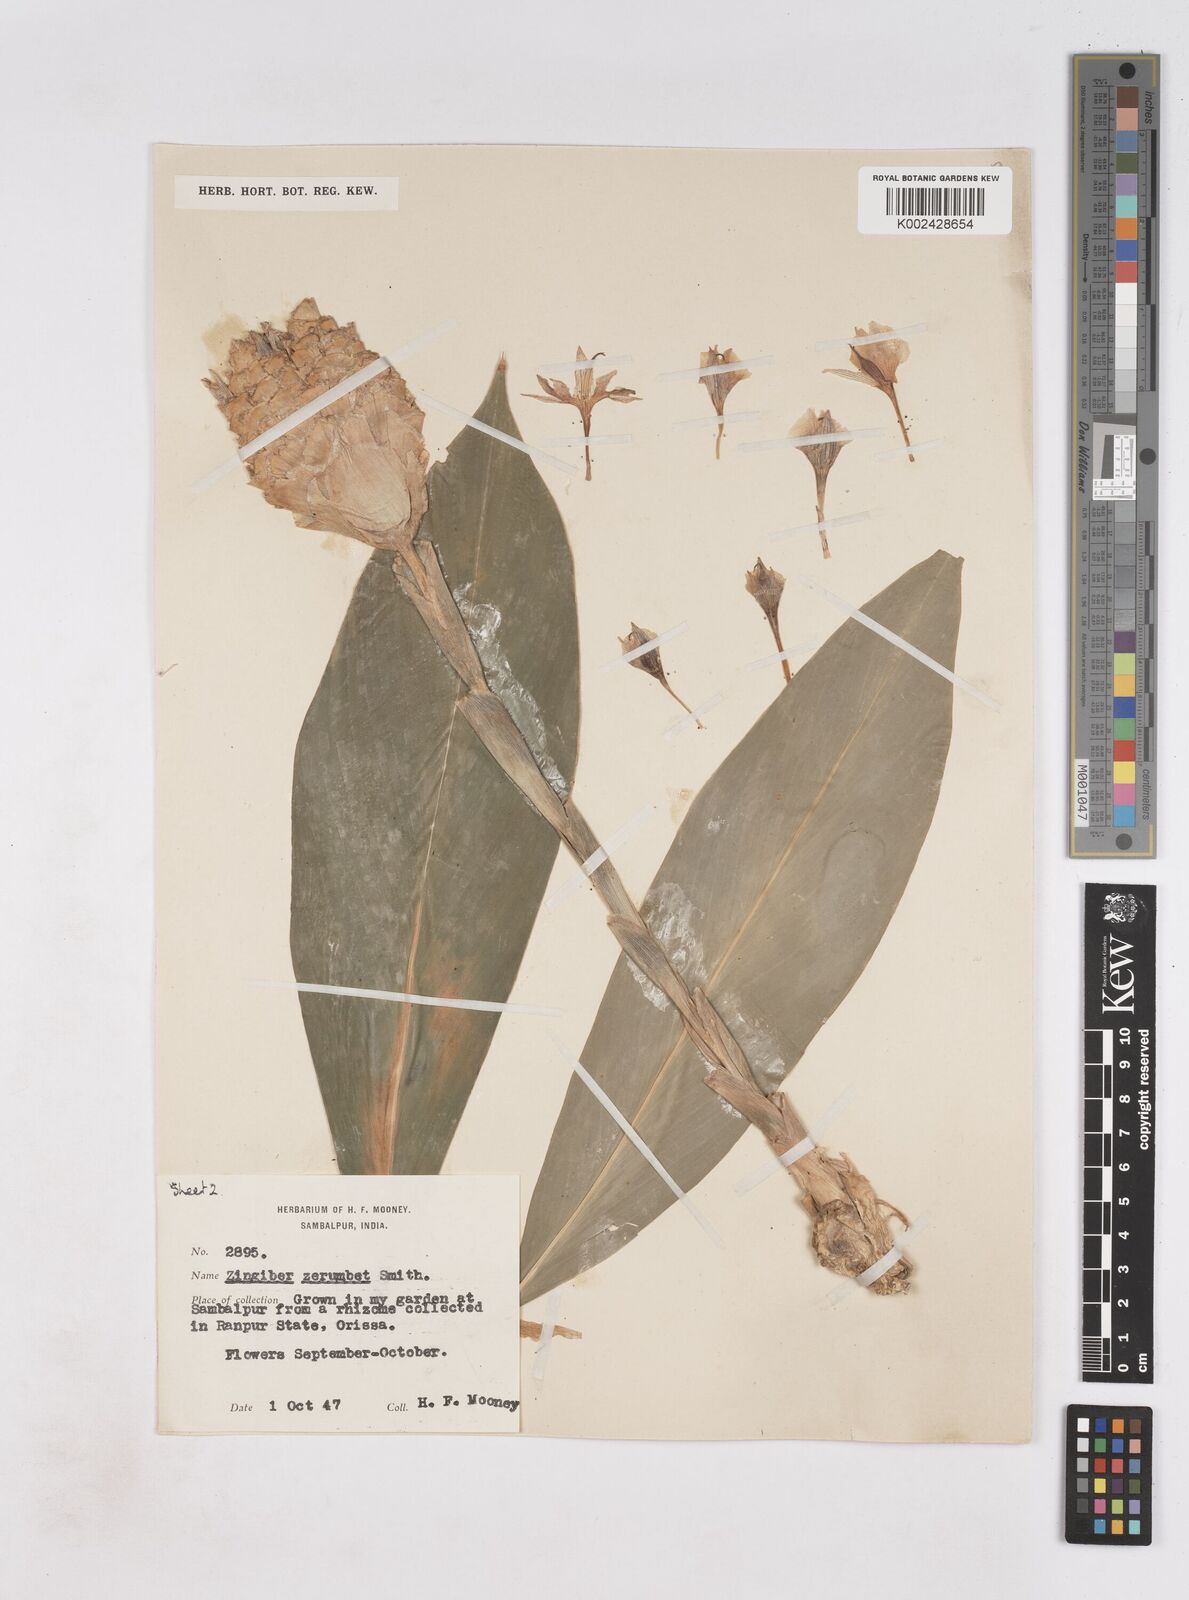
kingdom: Plantae
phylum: Tracheophyta
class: Liliopsida
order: Zingiberales
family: Zingiberaceae
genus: Zingiber
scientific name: Zingiber zerumbet
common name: Bitter ginger
